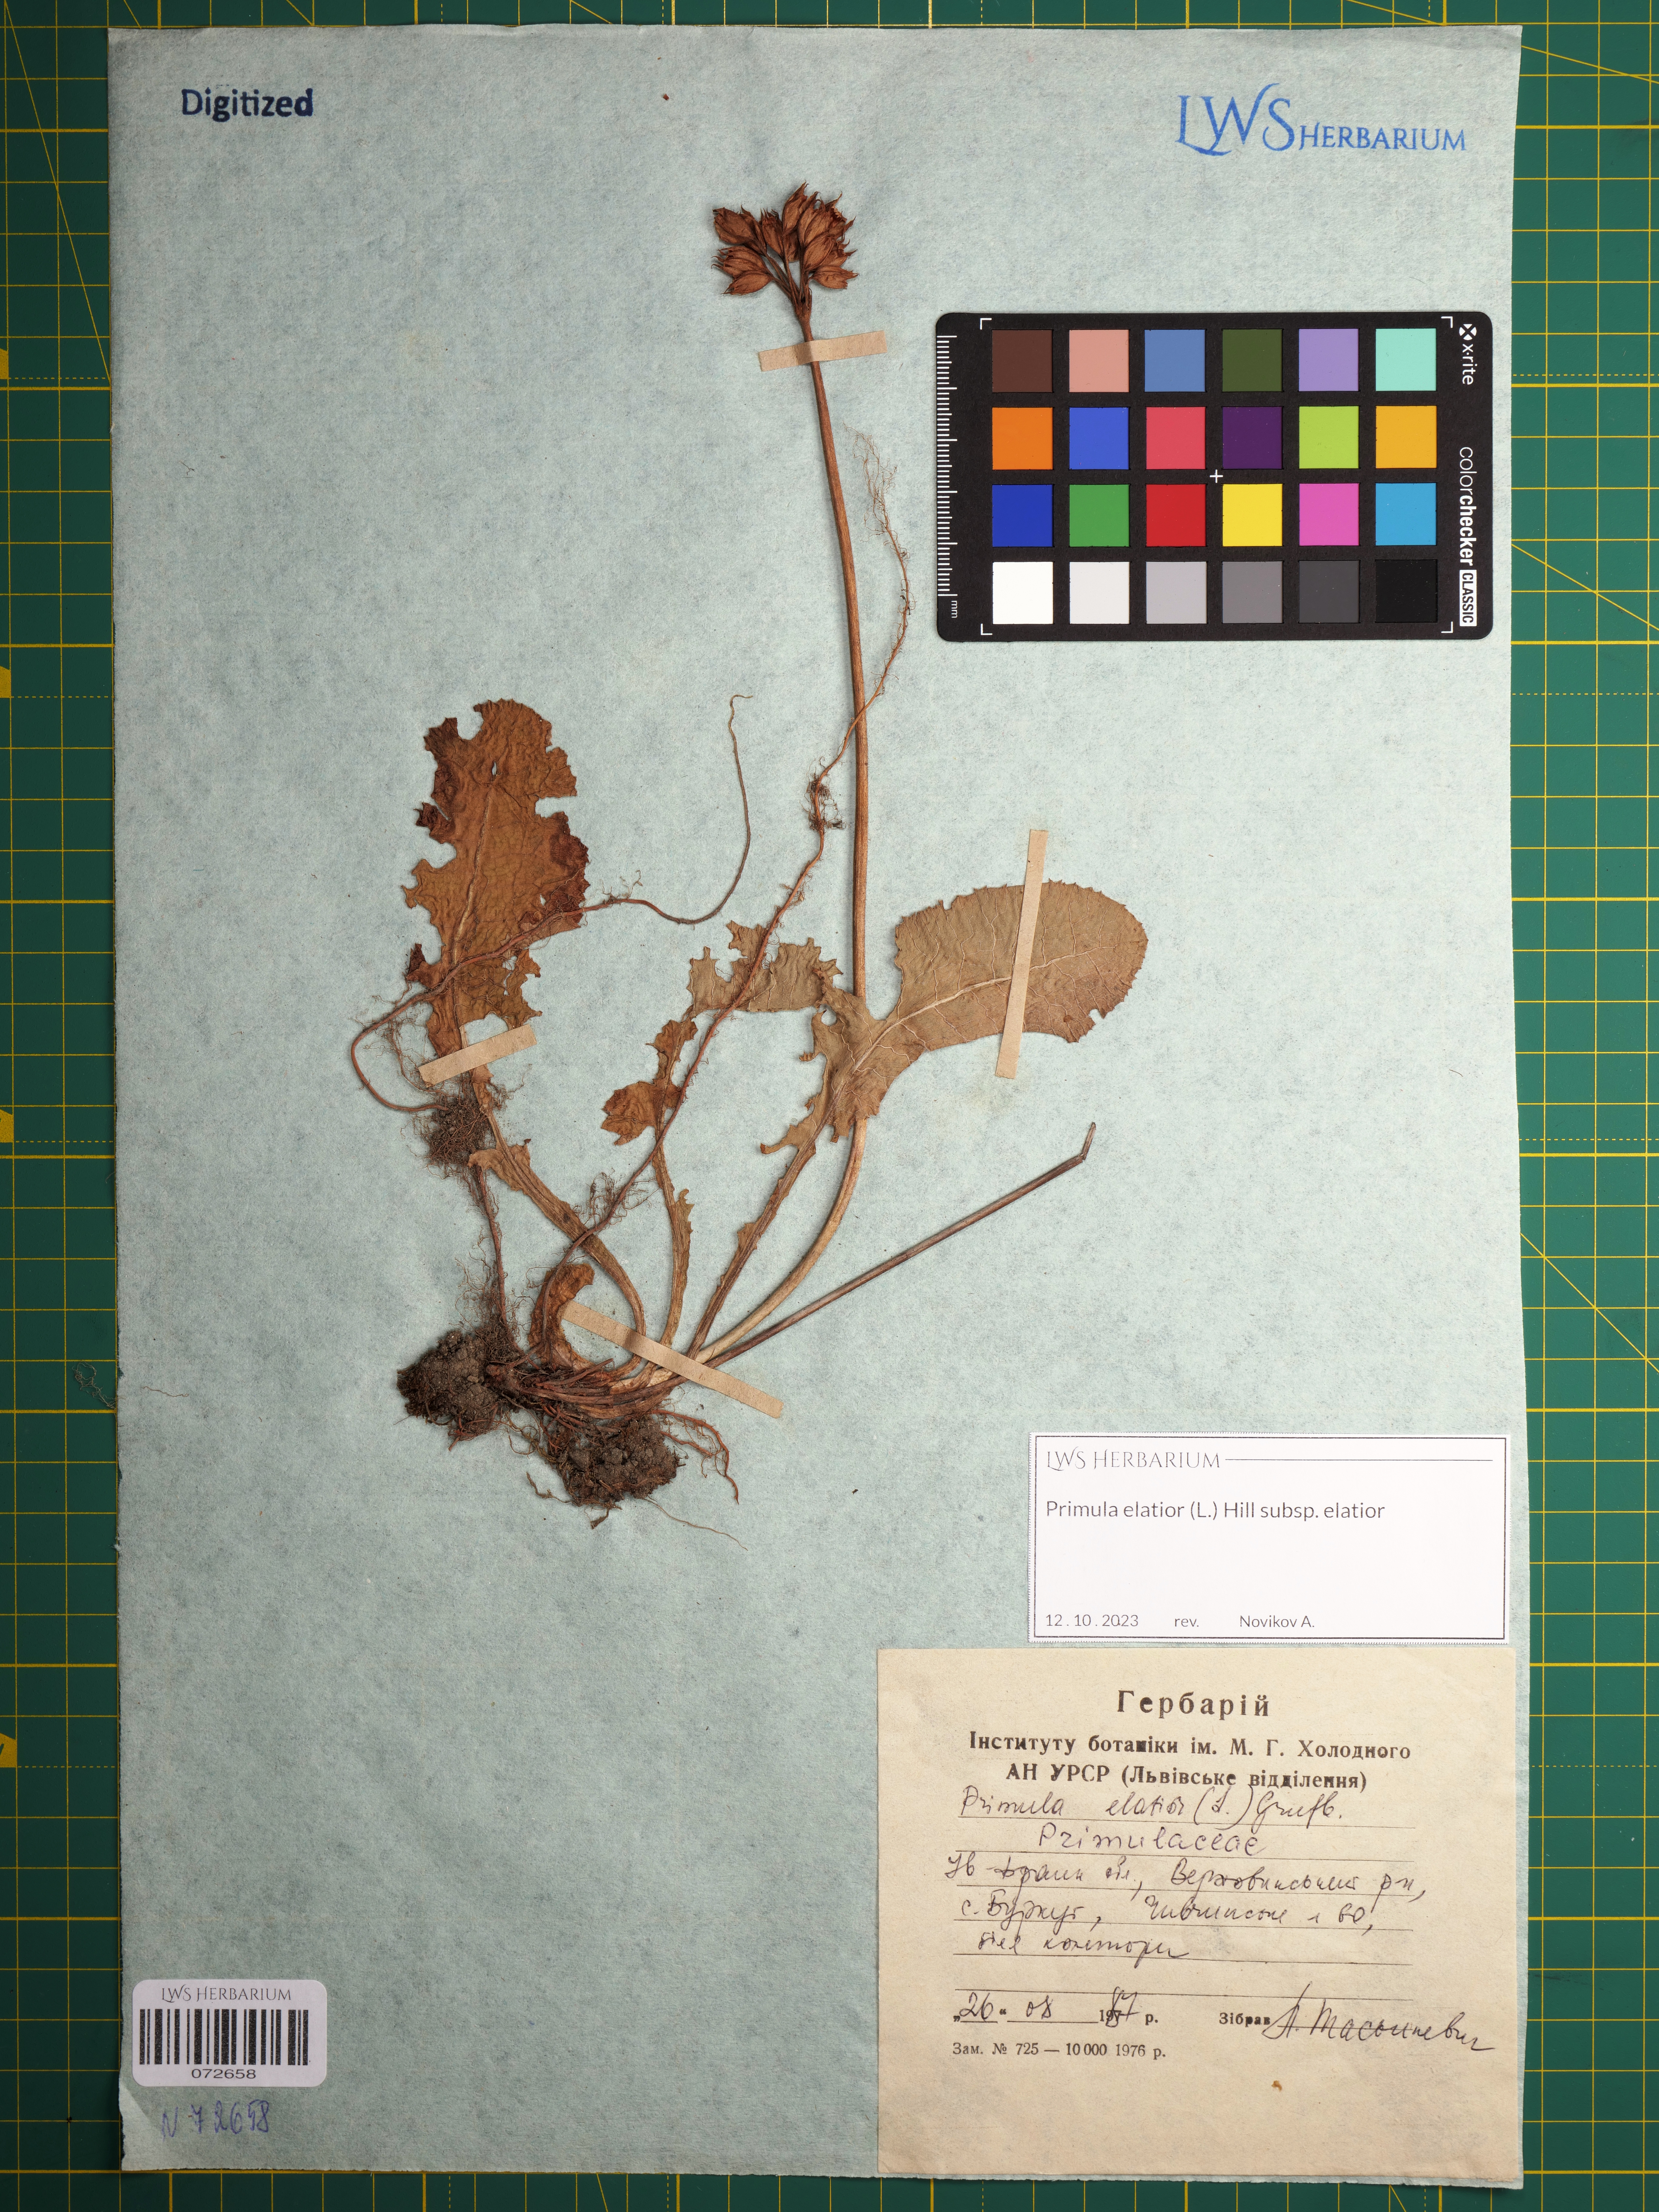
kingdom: Plantae
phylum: Tracheophyta
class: Magnoliopsida
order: Ericales
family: Primulaceae
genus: Primula
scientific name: Primula elatior
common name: Oxlip
